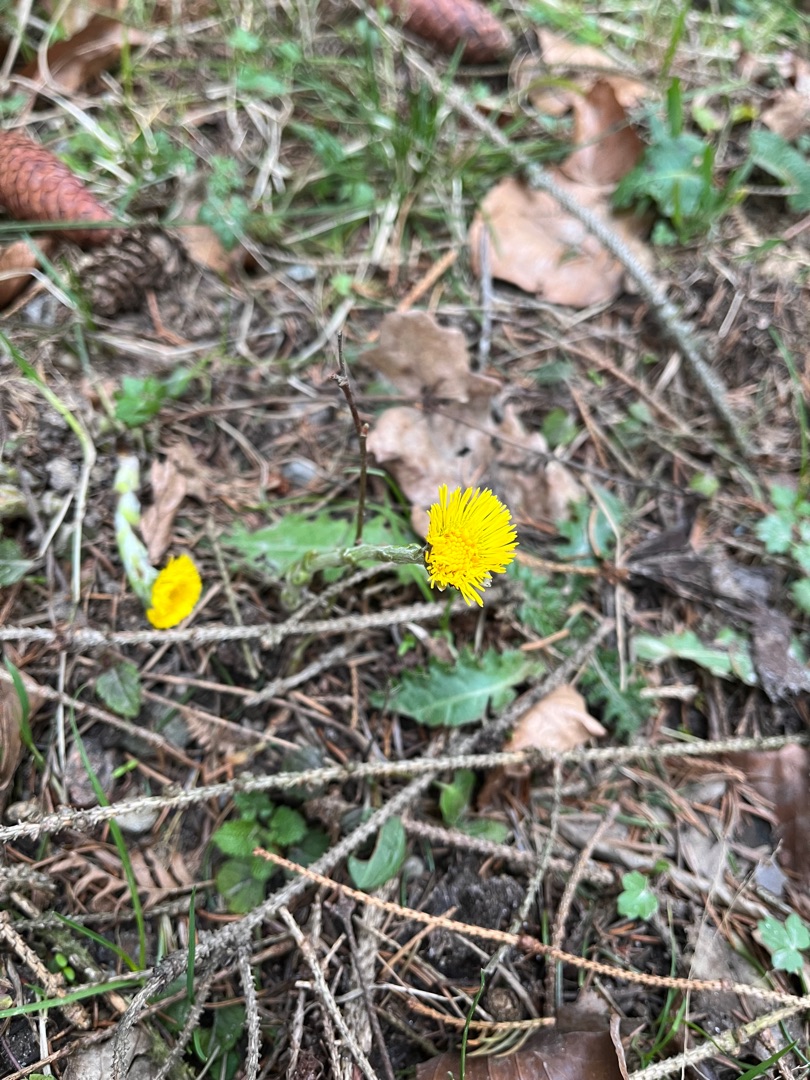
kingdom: Plantae
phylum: Tracheophyta
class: Magnoliopsida
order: Asterales
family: Asteraceae
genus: Tussilago
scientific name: Tussilago farfara
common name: Følfod
